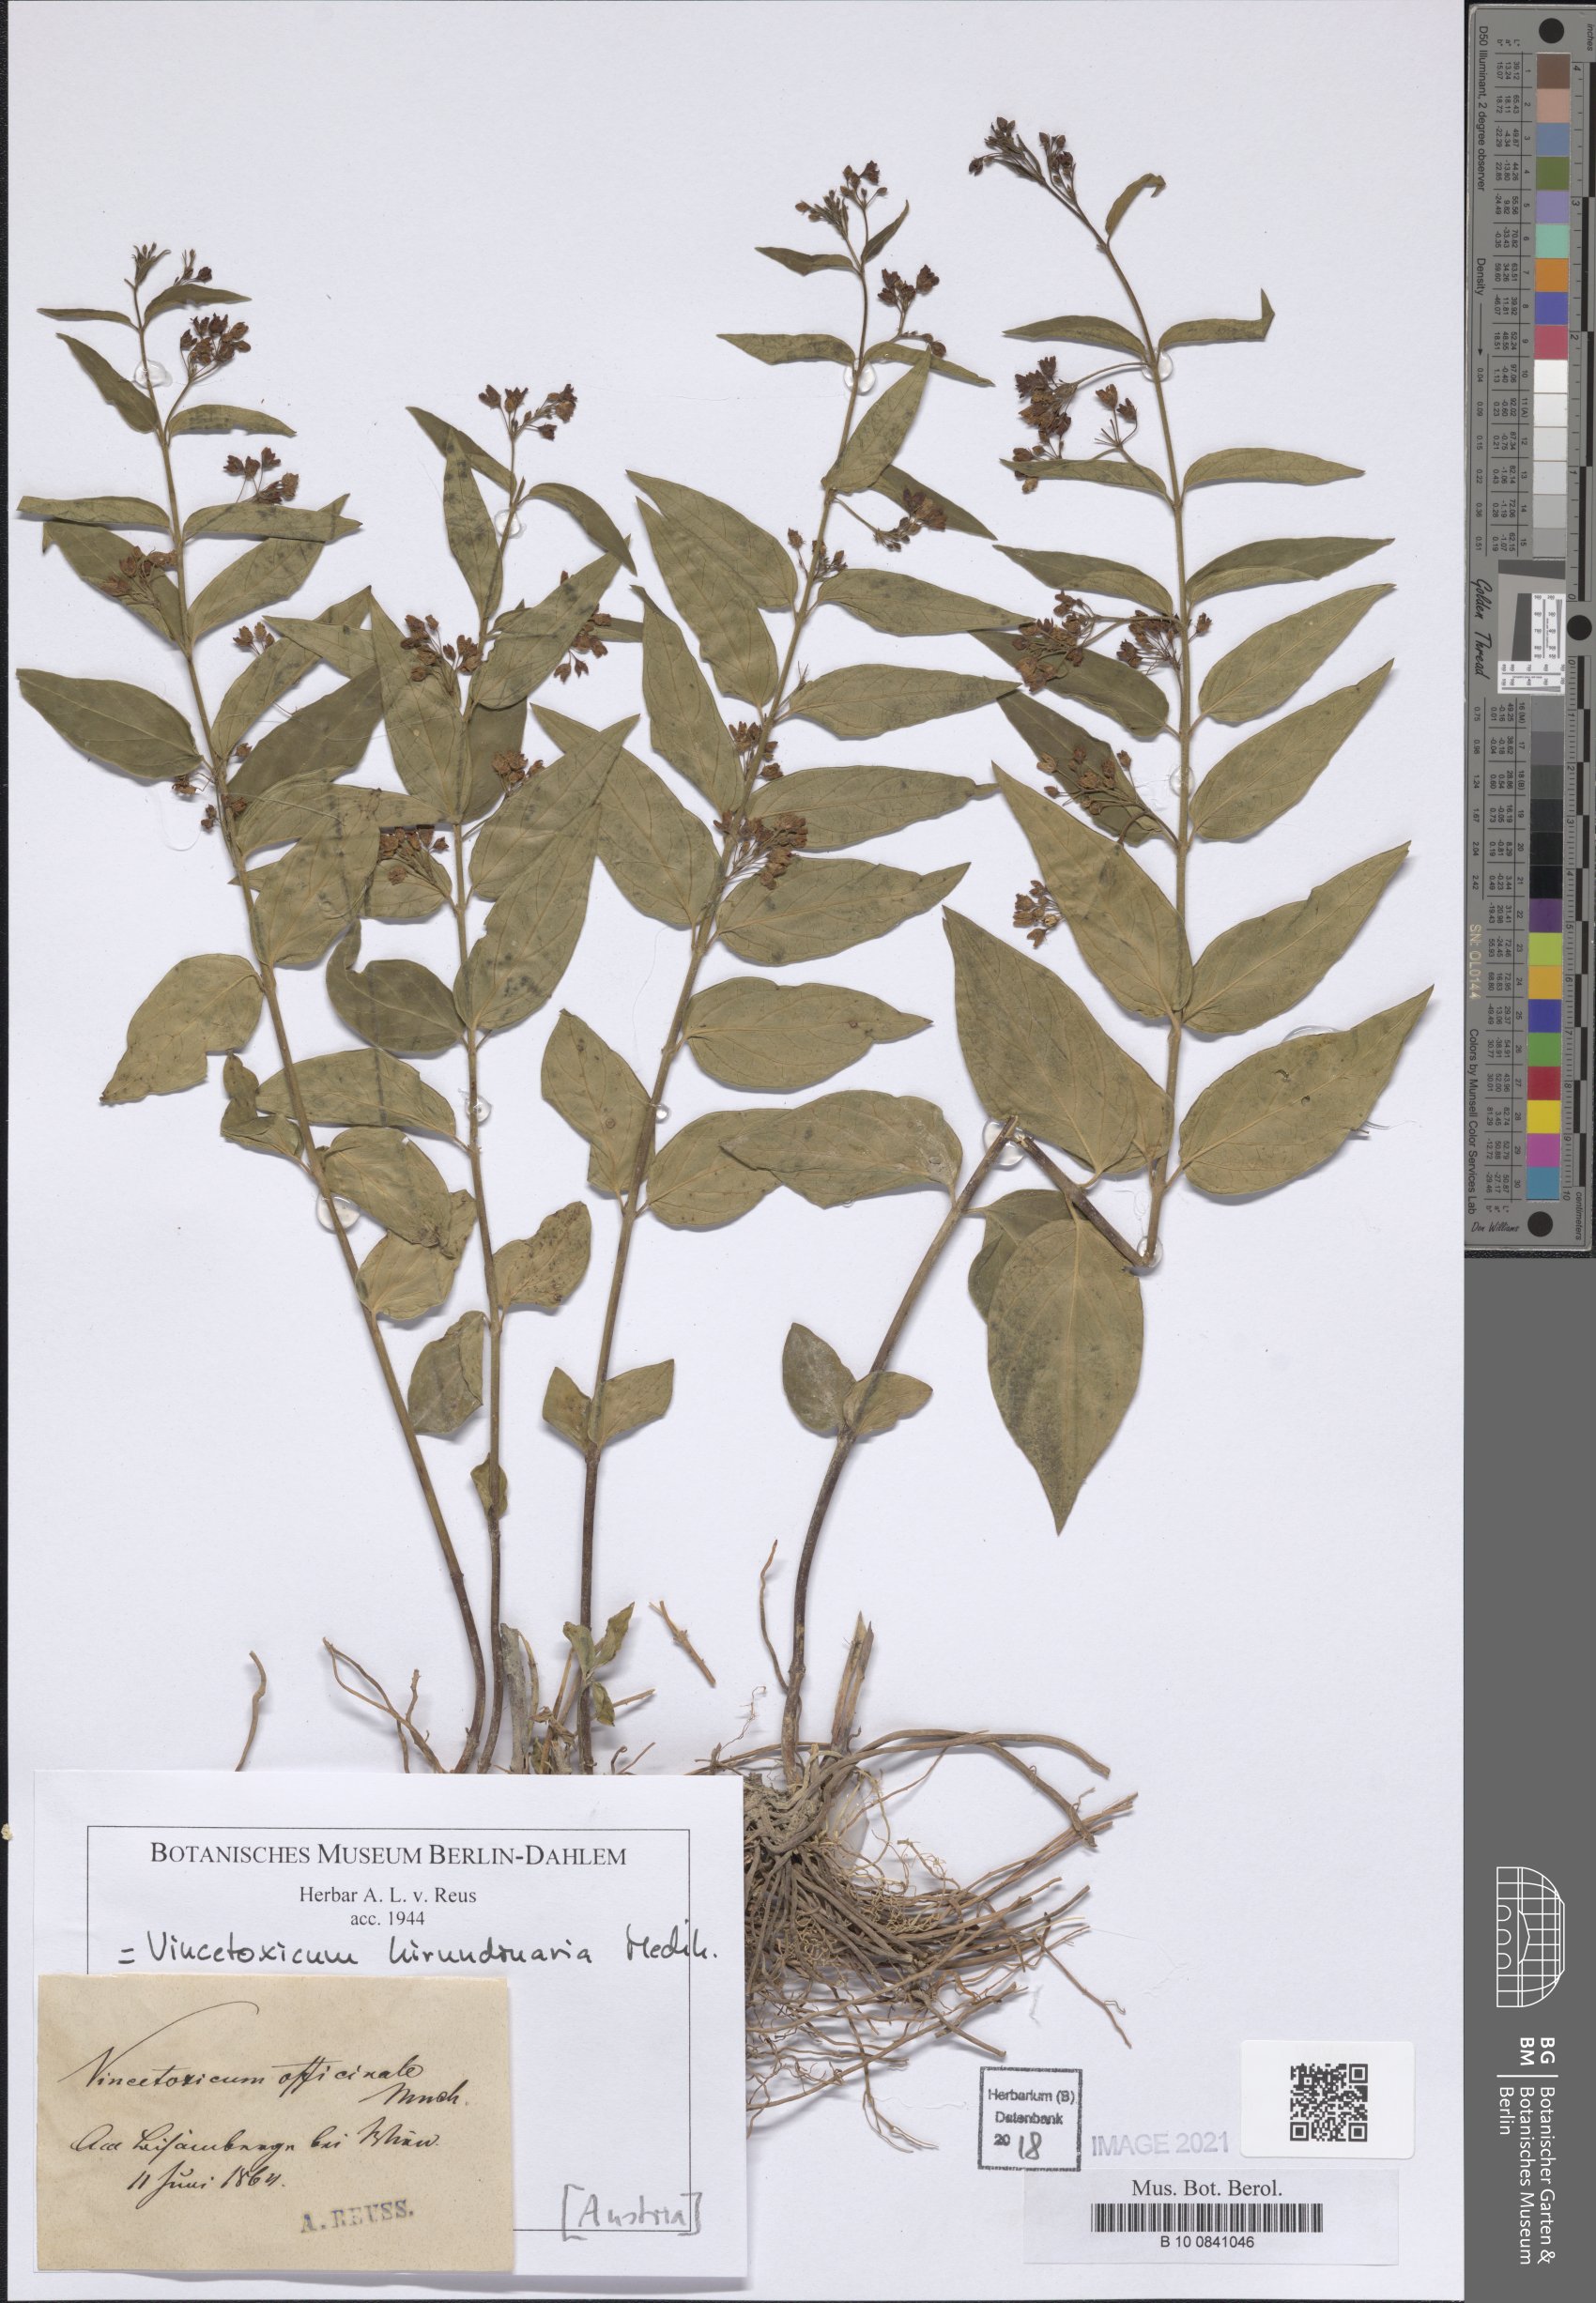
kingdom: Plantae
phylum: Tracheophyta
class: Magnoliopsida
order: Gentianales
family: Apocynaceae
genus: Vincetoxicum
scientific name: Vincetoxicum hirundinaria
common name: White swallowwort
